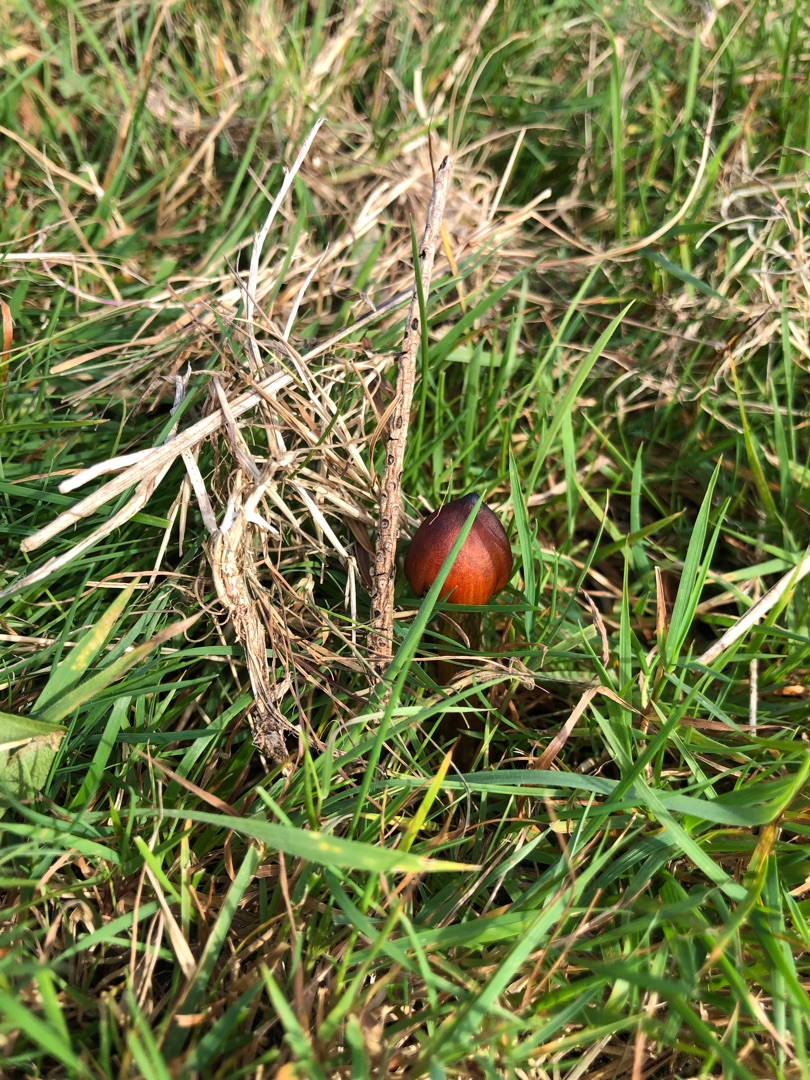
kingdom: Fungi
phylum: Basidiomycota
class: Agaricomycetes
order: Agaricales
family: Hygrophoraceae
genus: Hygrocybe
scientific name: Hygrocybe conica
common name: Kegle-vokshat
